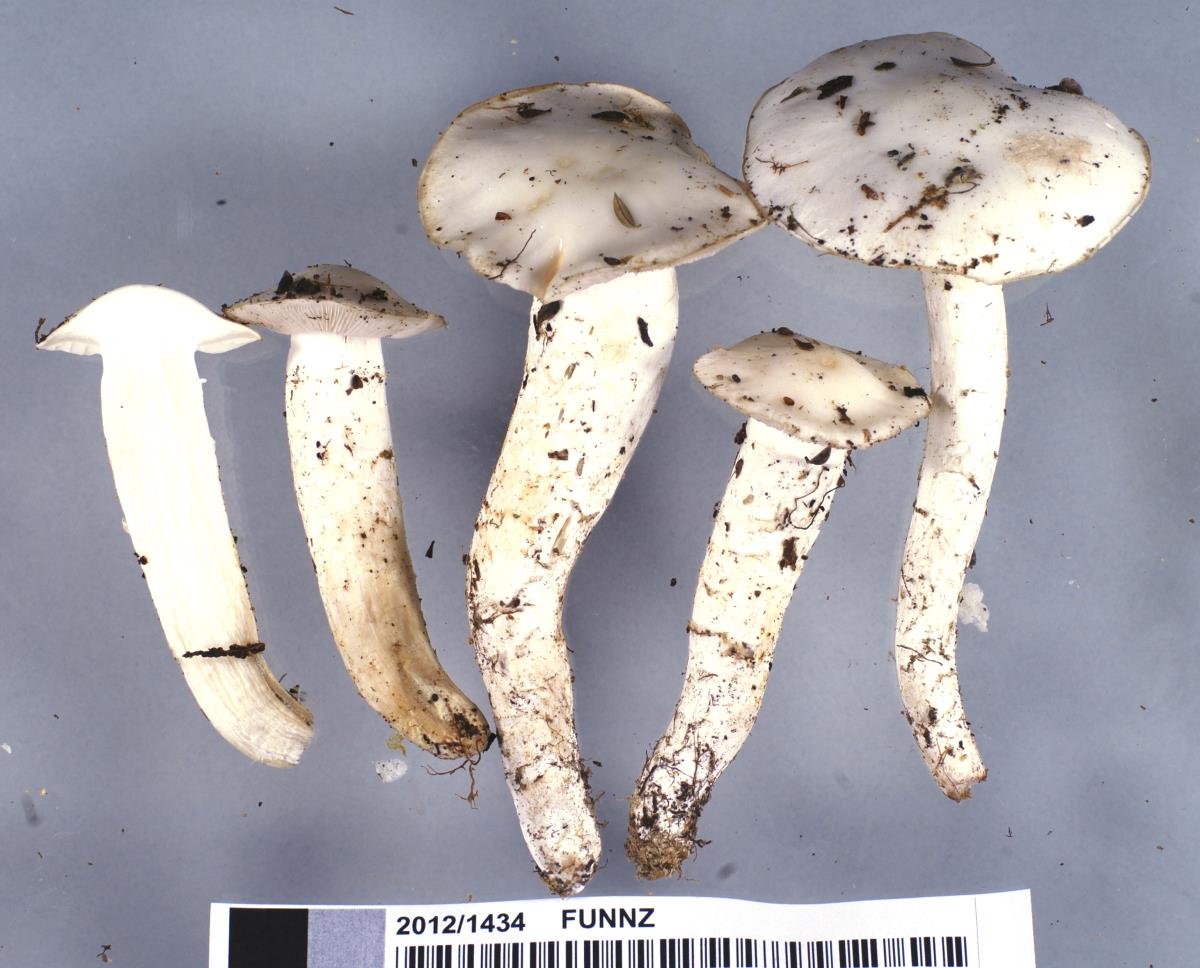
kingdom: Fungi
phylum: Basidiomycota
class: Agaricomycetes
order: Agaricales
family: Cortinariaceae
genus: Thaxterogaster
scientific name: Thaxterogaster cretax
